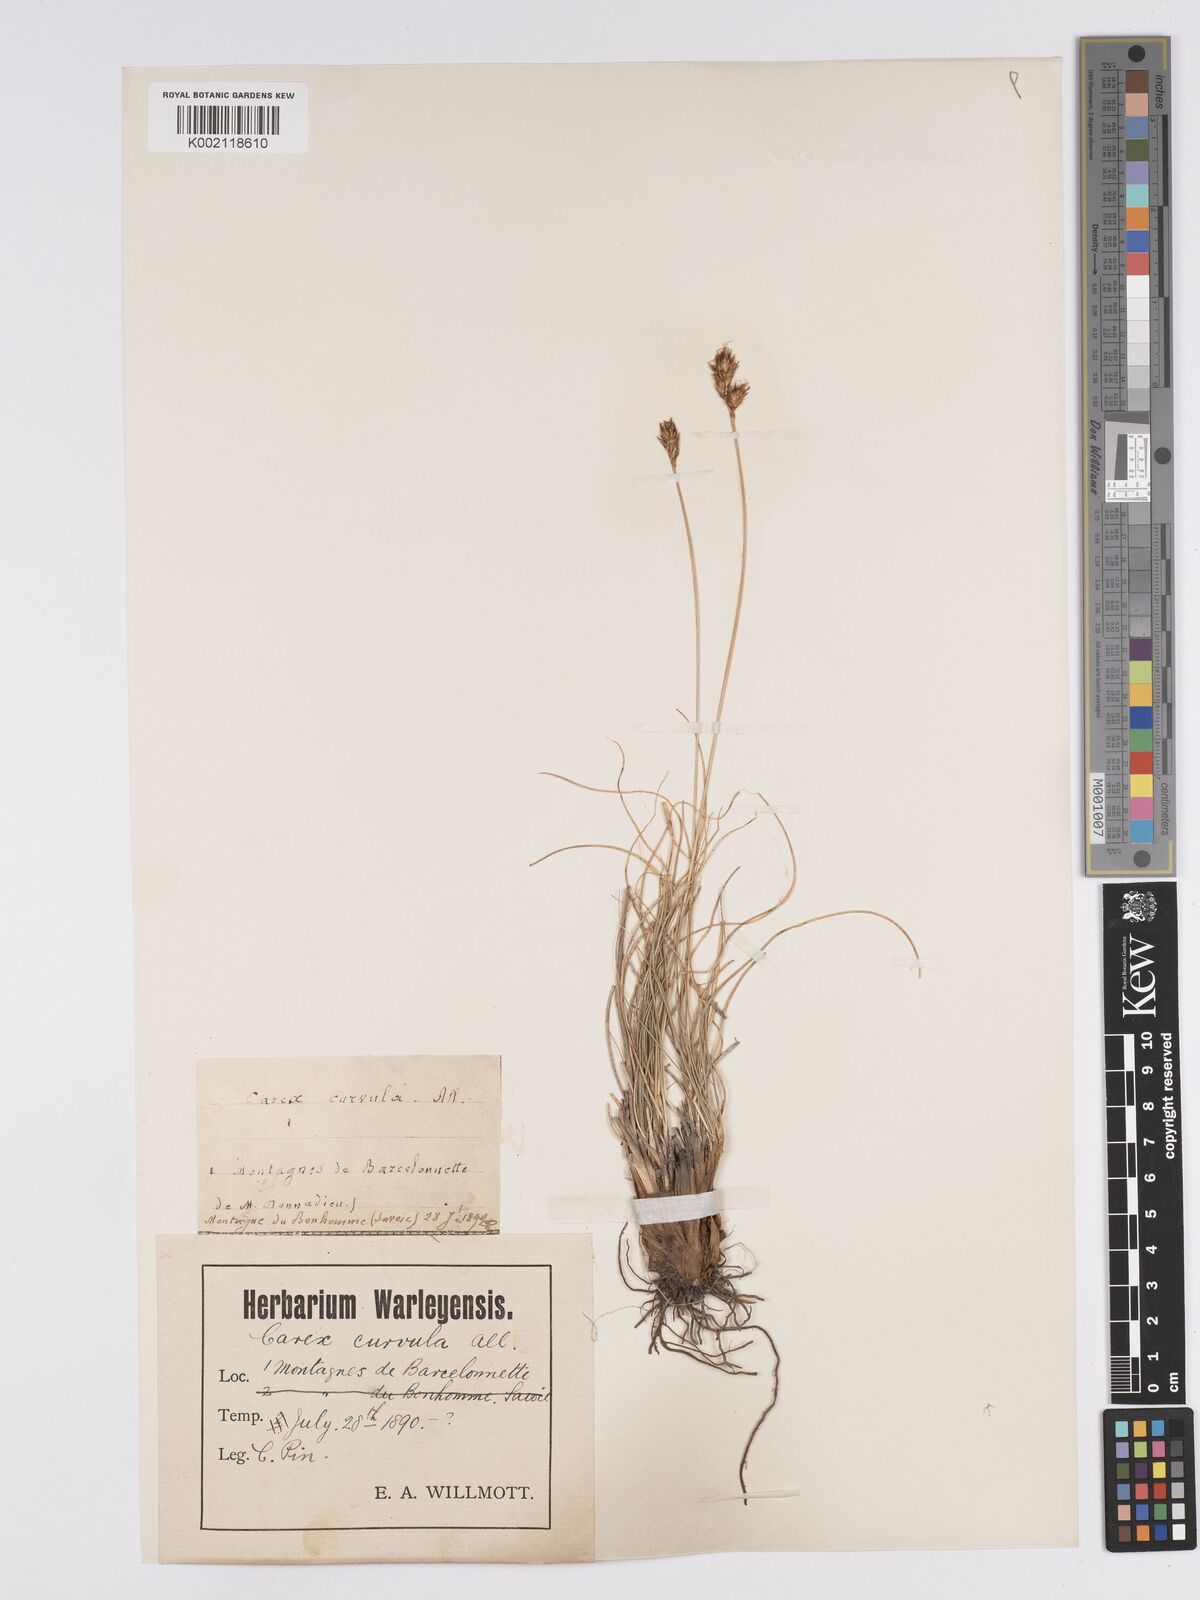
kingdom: Plantae
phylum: Tracheophyta
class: Liliopsida
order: Poales
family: Cyperaceae
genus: Carex
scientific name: Carex curvula
